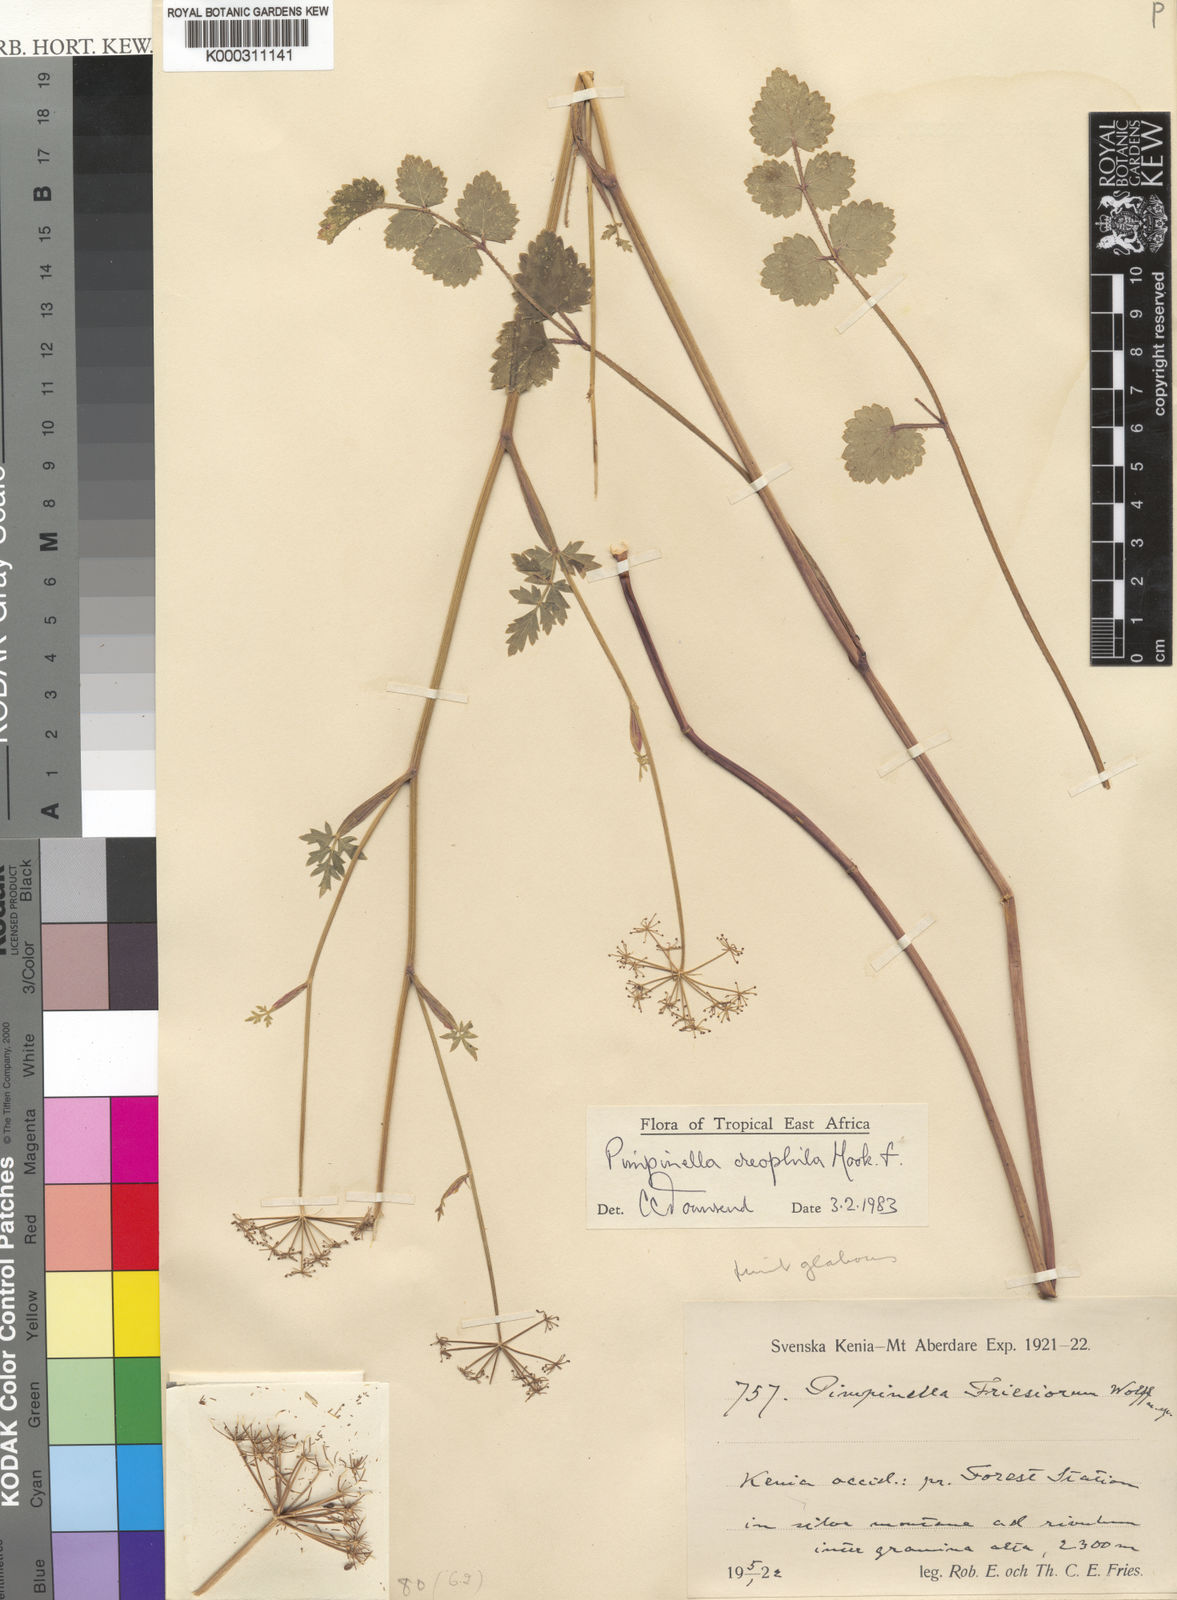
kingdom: Plantae
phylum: Tracheophyta
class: Magnoliopsida
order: Apiales
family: Apiaceae
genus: Pimpinella
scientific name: Pimpinella oreophila
